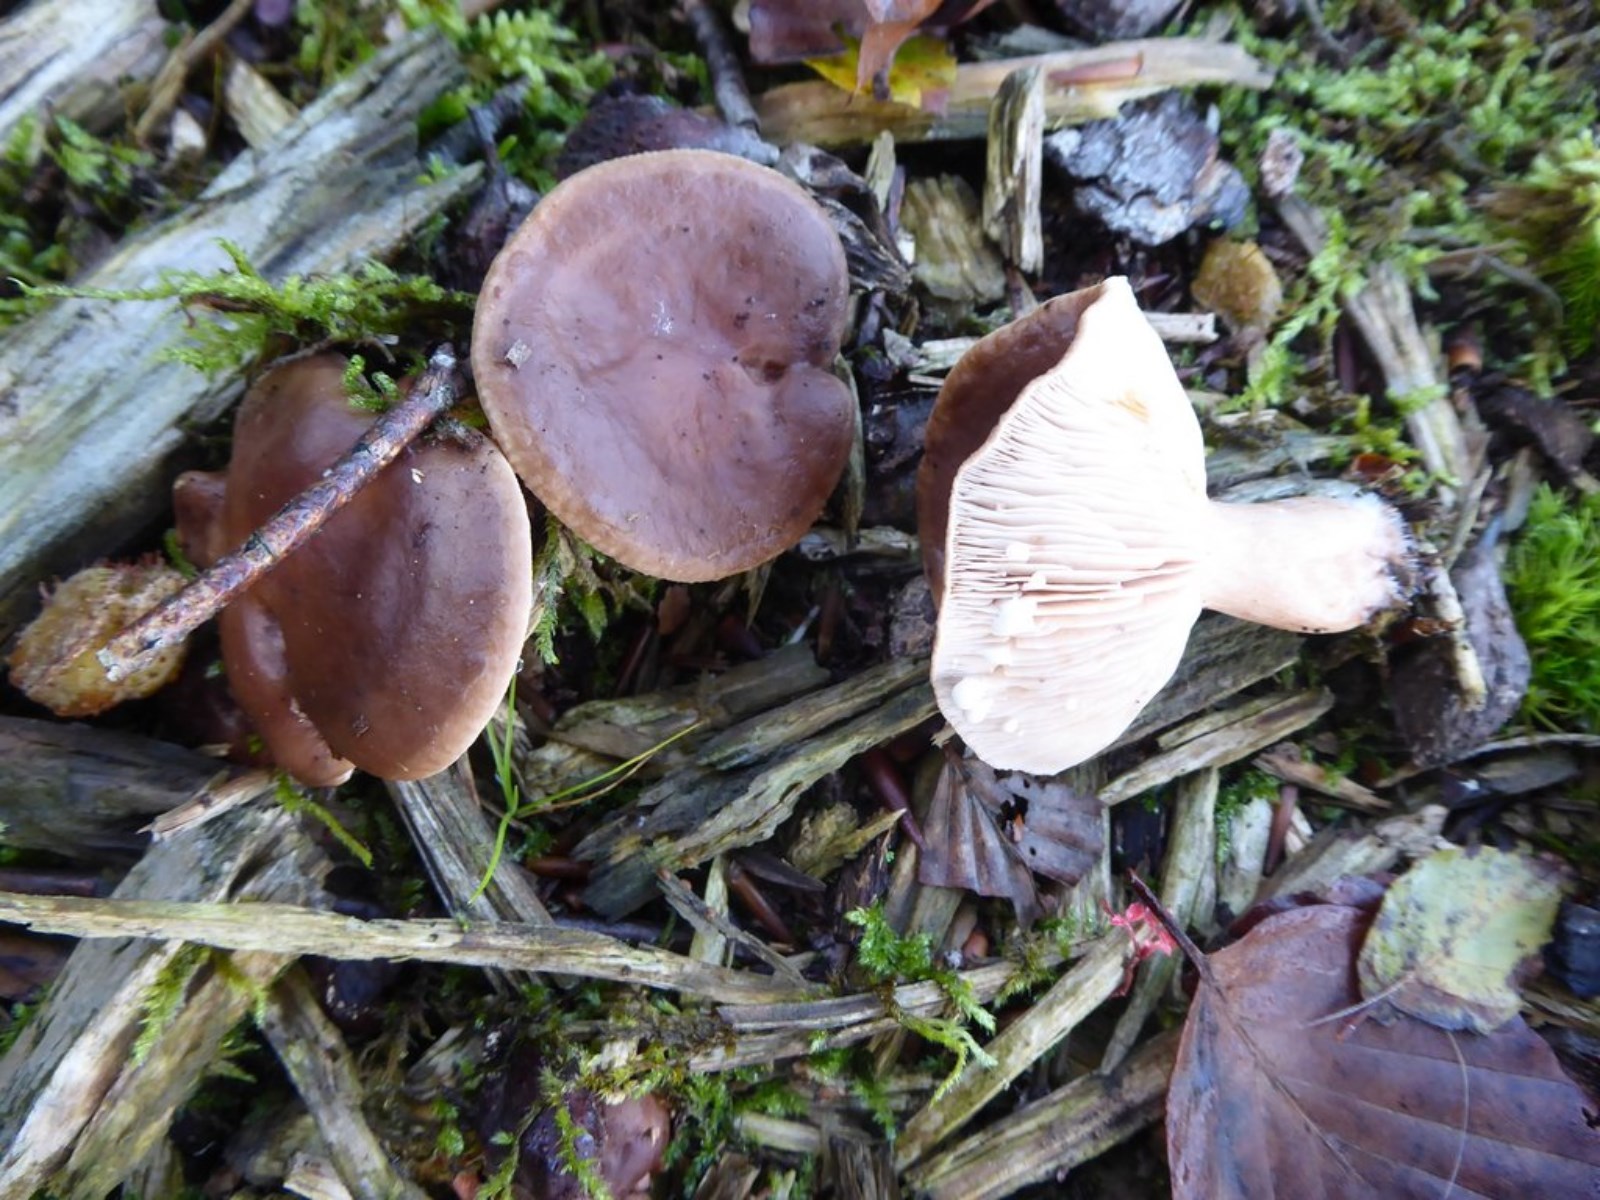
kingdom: Fungi
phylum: Basidiomycota
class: Agaricomycetes
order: Russulales
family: Russulaceae
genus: Lactarius
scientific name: Lactarius
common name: mælkehat
